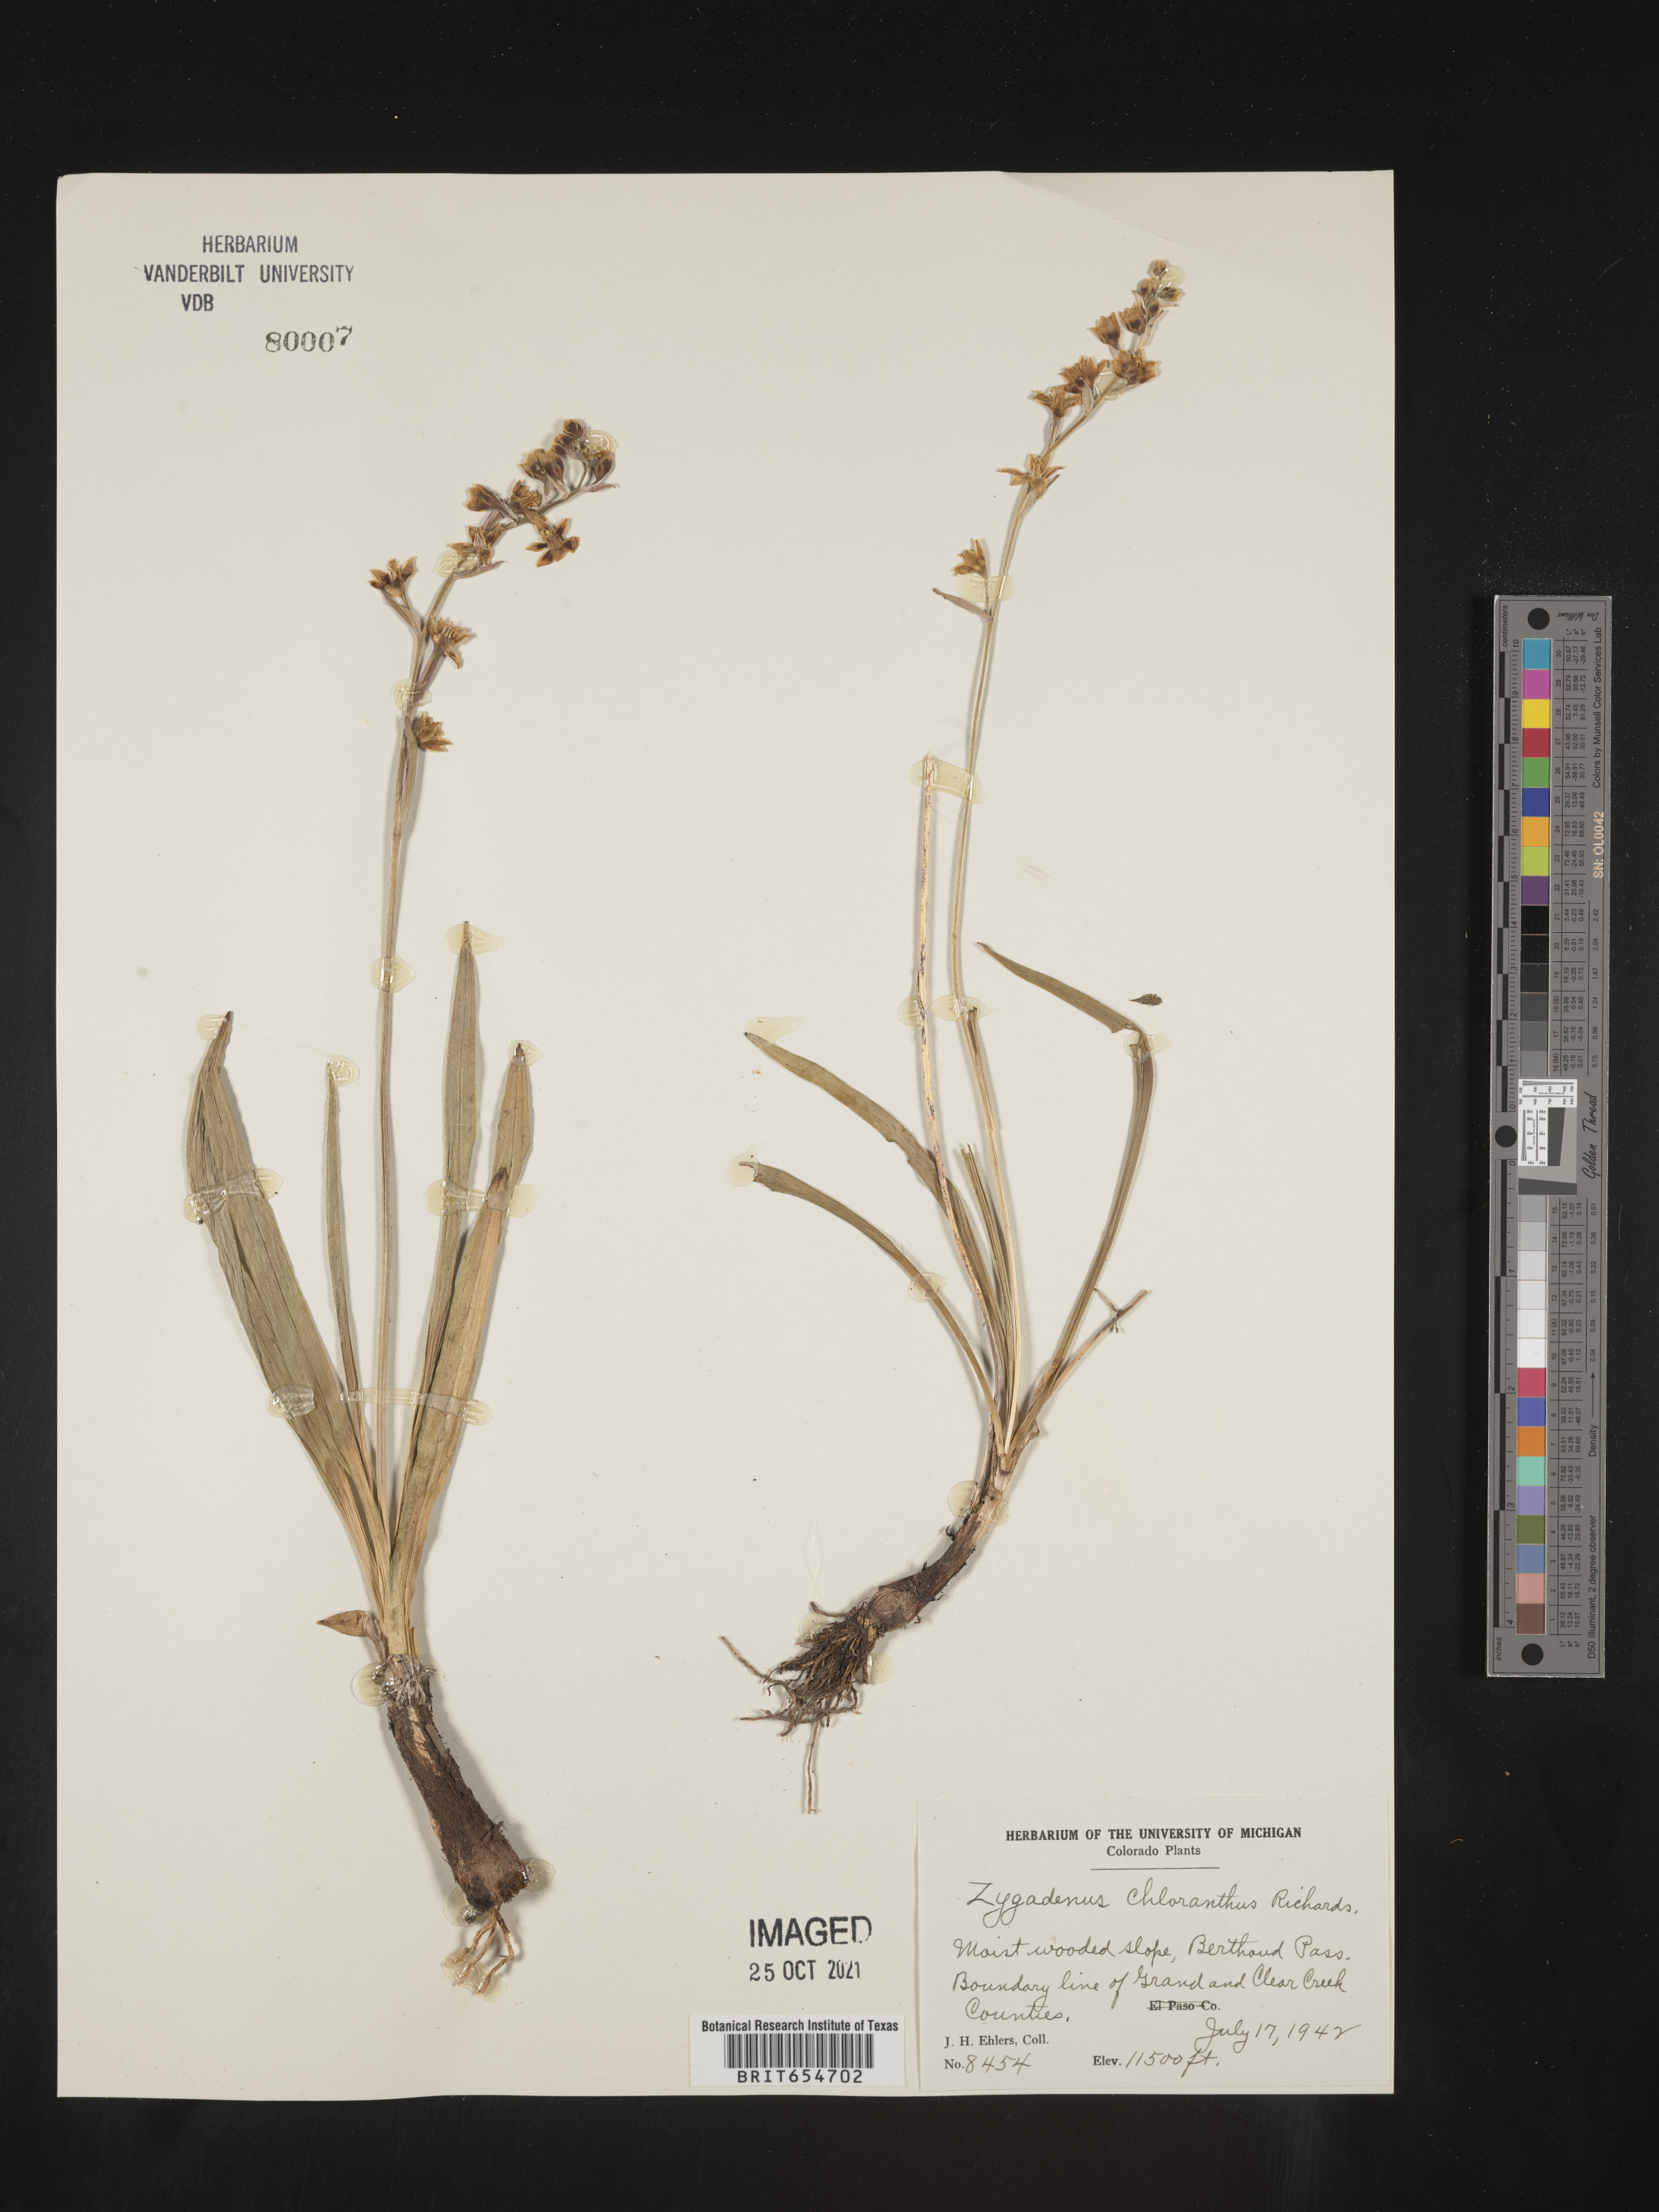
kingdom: Plantae
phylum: Tracheophyta
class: Liliopsida
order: Liliales
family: Melanthiaceae
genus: Zigadenus
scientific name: Zigadenus
